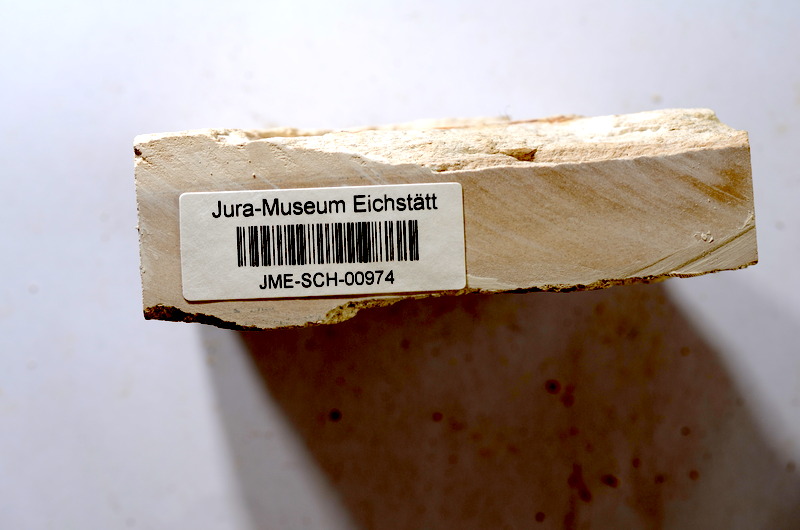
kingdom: Animalia
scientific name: Animalia
